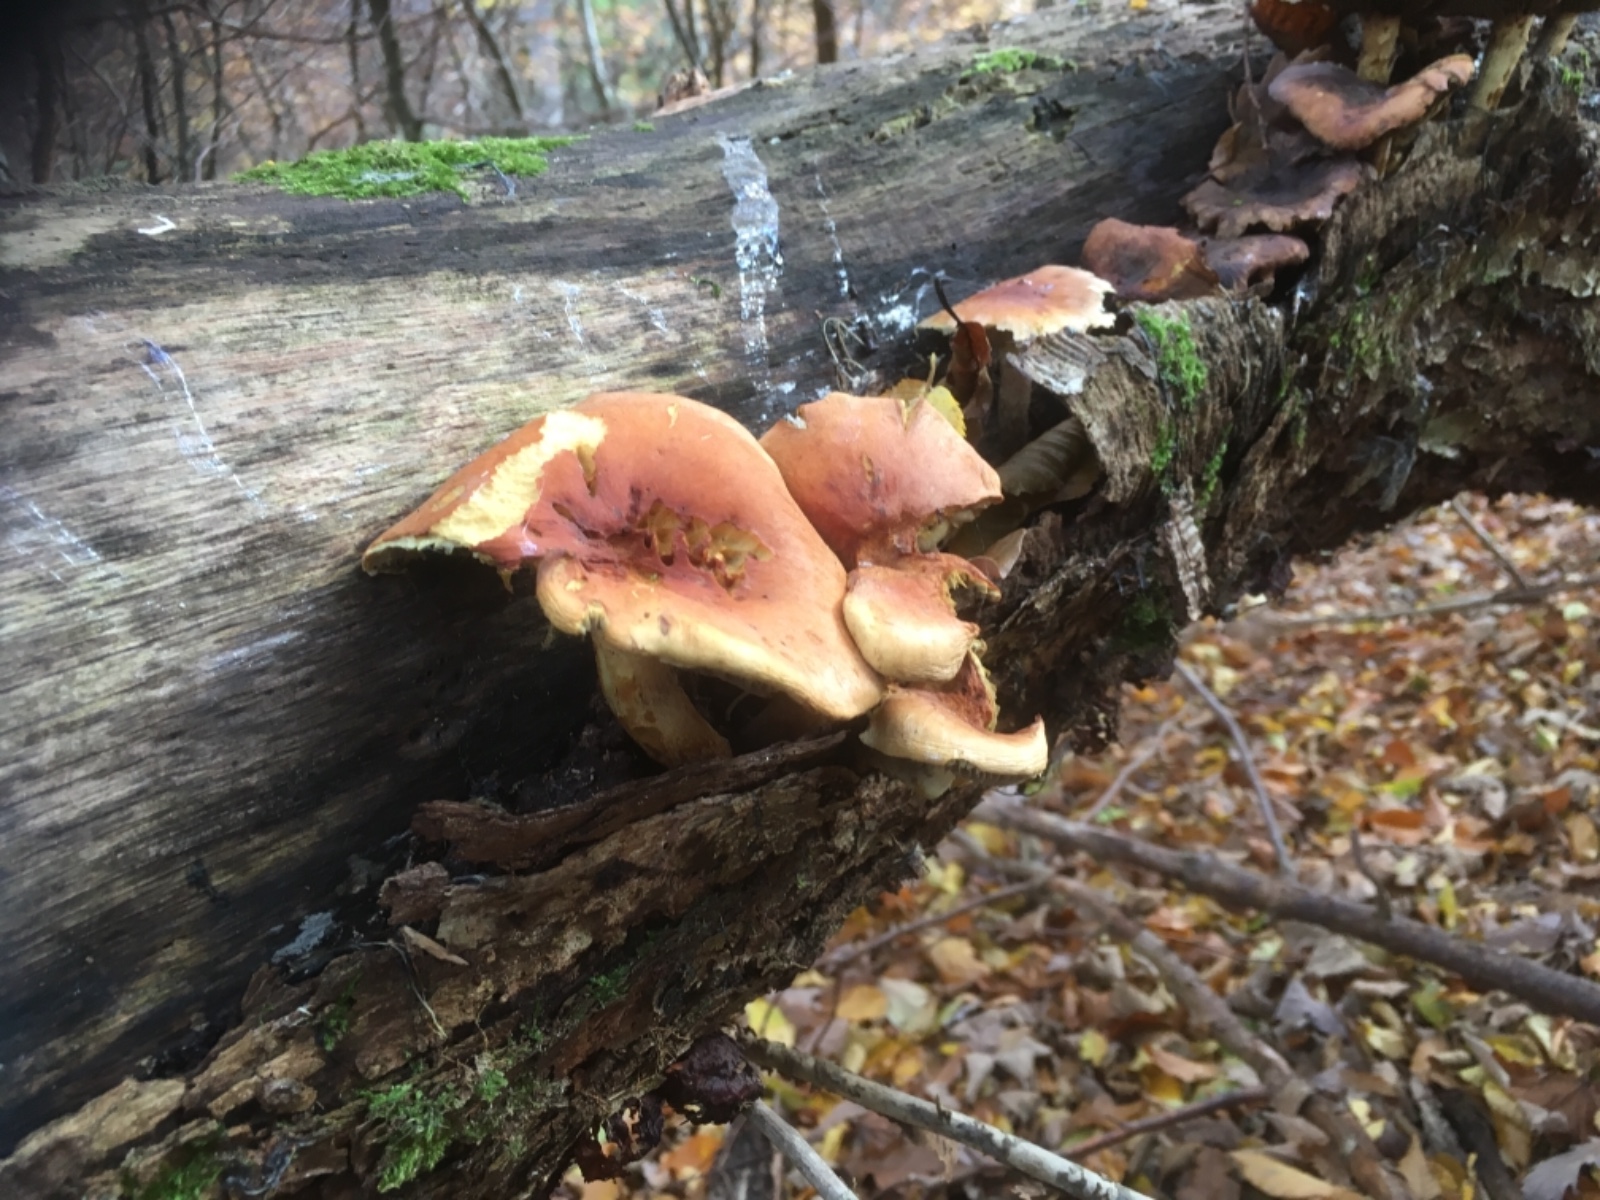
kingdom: Fungi
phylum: Basidiomycota
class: Agaricomycetes
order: Agaricales
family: Strophariaceae
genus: Hypholoma
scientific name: Hypholoma lateritium
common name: teglrød svovlhat
